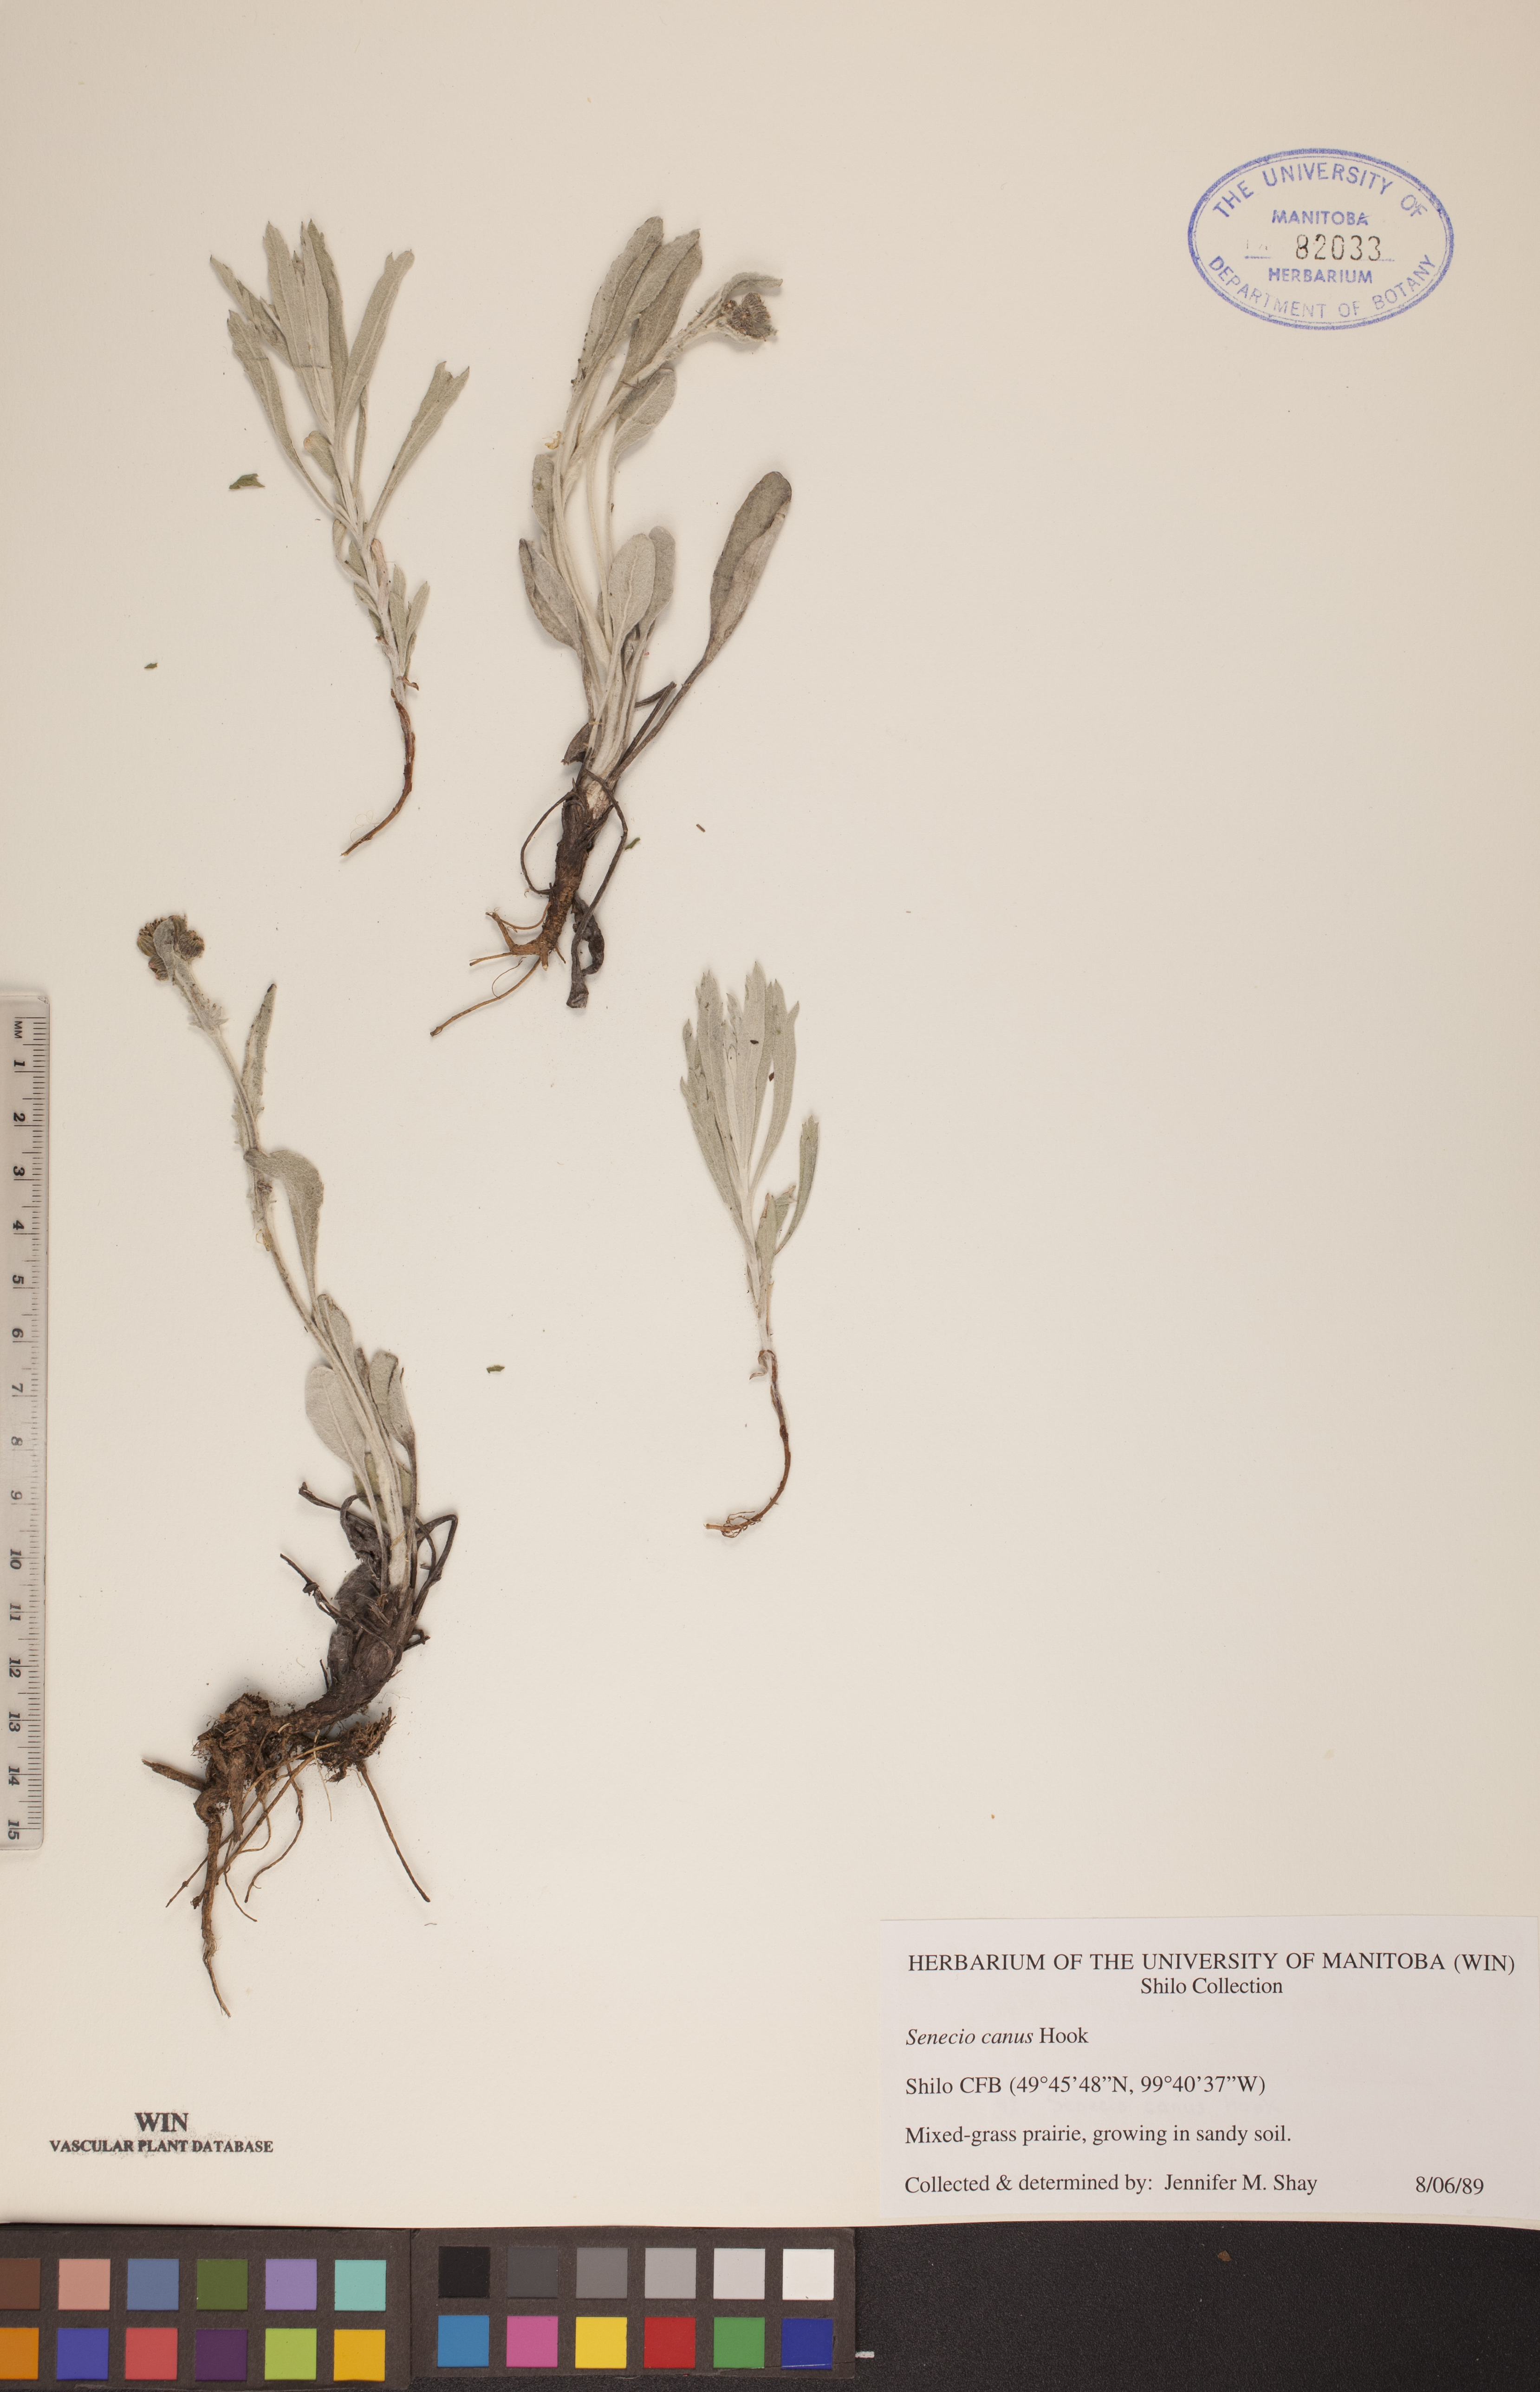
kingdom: Plantae
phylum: Tracheophyta
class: Magnoliopsida
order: Asterales
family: Asteraceae
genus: Packera
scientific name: Packera cana
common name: Woolly groundsel
